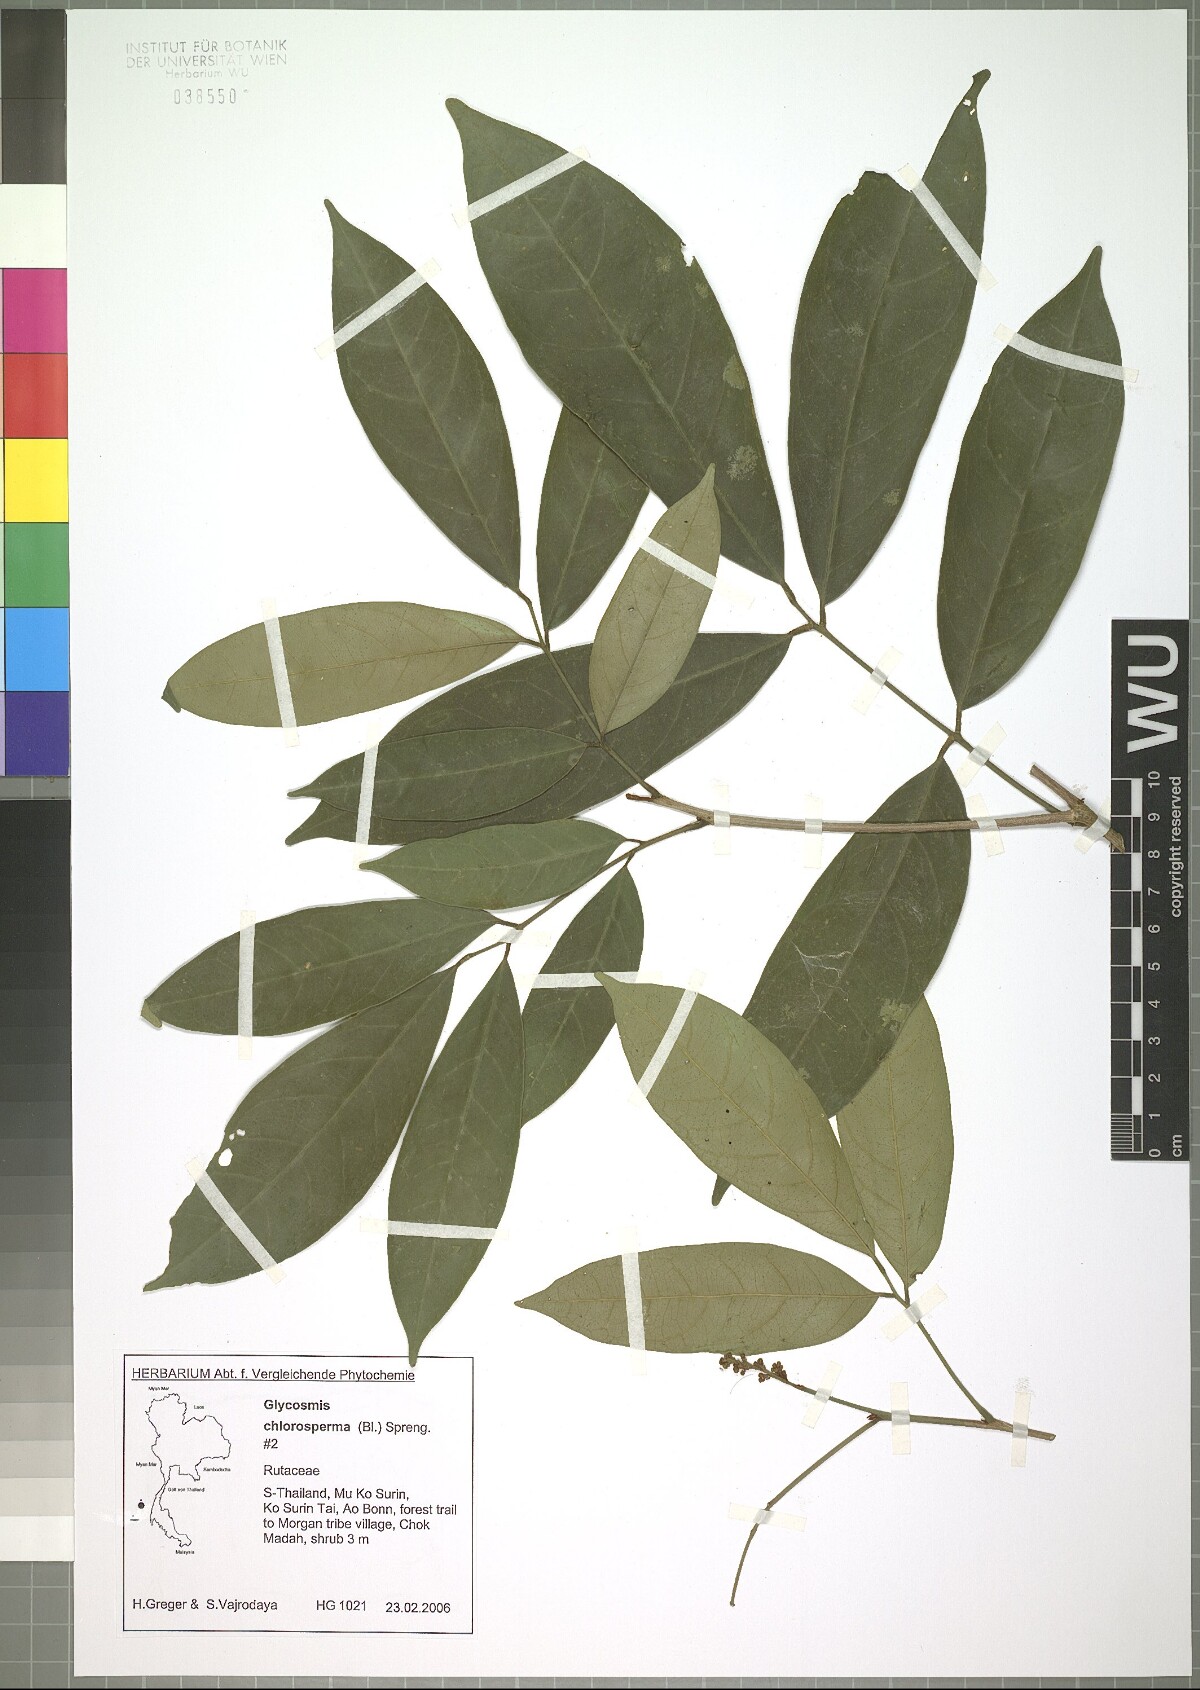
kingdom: Plantae
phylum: Tracheophyta
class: Magnoliopsida
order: Sapindales
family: Rutaceae
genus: Glycosmis
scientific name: Glycosmis chlorosperma
